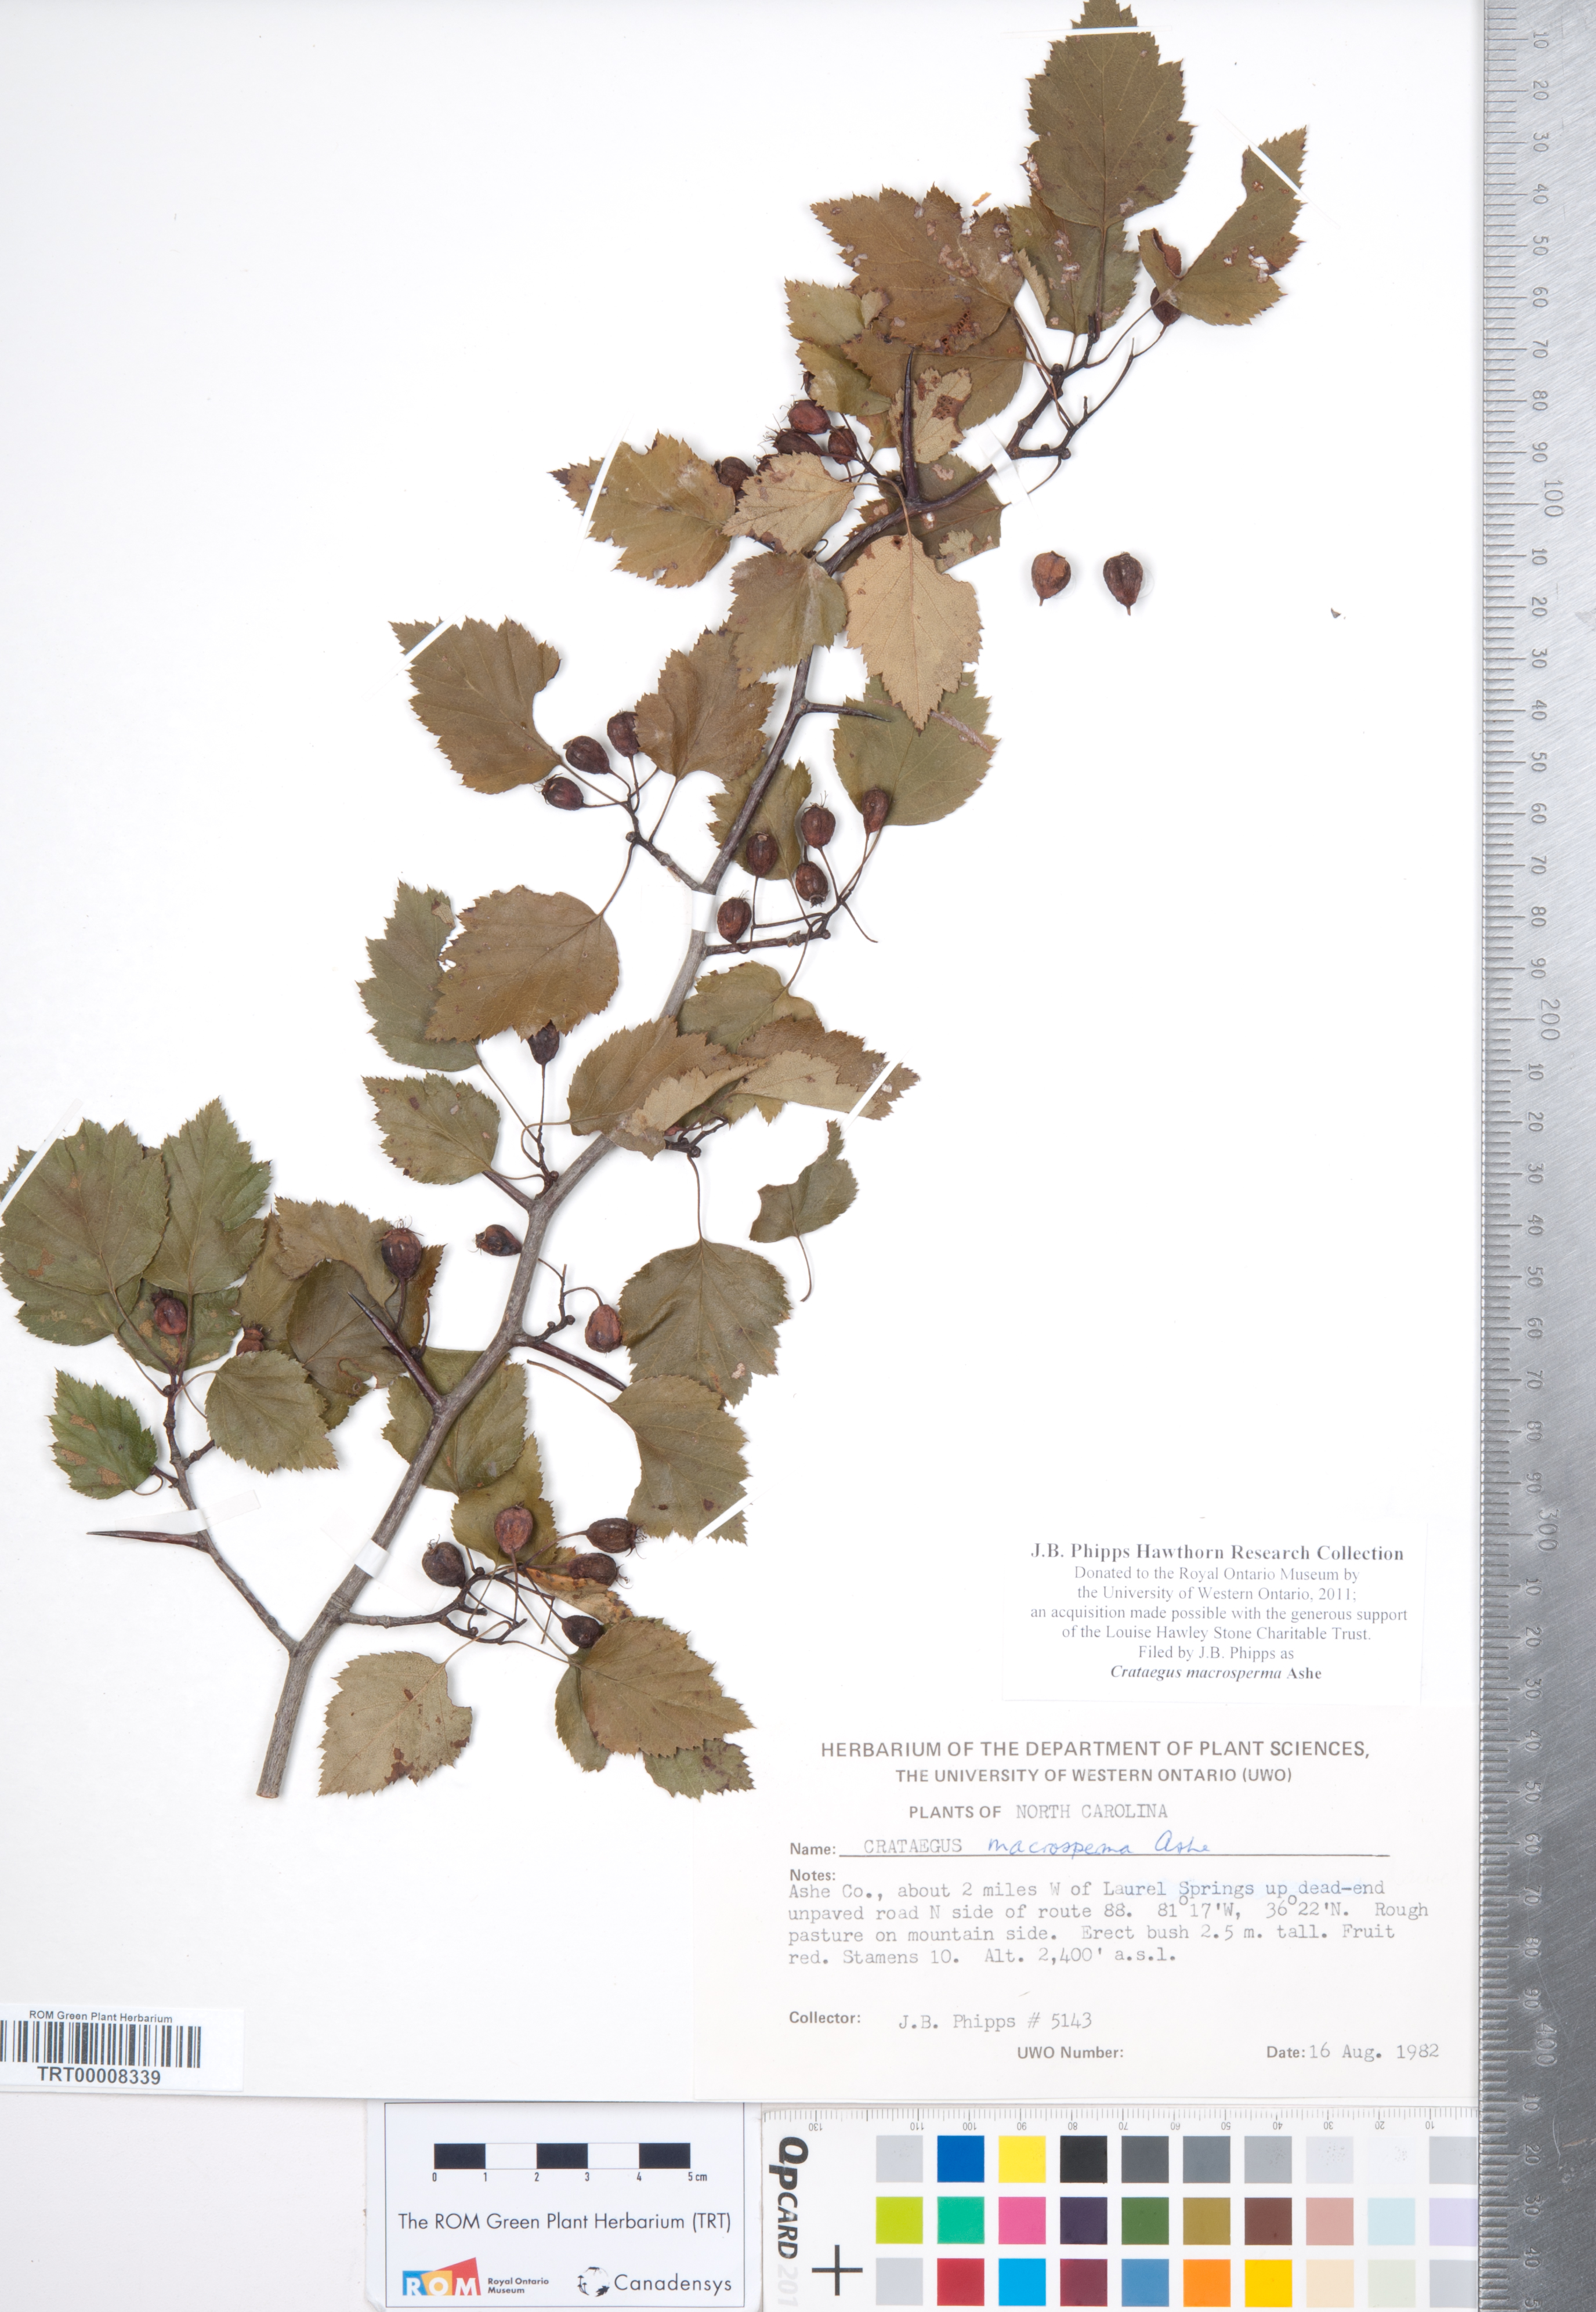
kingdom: Plantae
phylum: Tracheophyta
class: Magnoliopsida
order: Rosales
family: Rosaceae
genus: Crataegus
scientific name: Crataegus macrosperma
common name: Variable hawthorn
